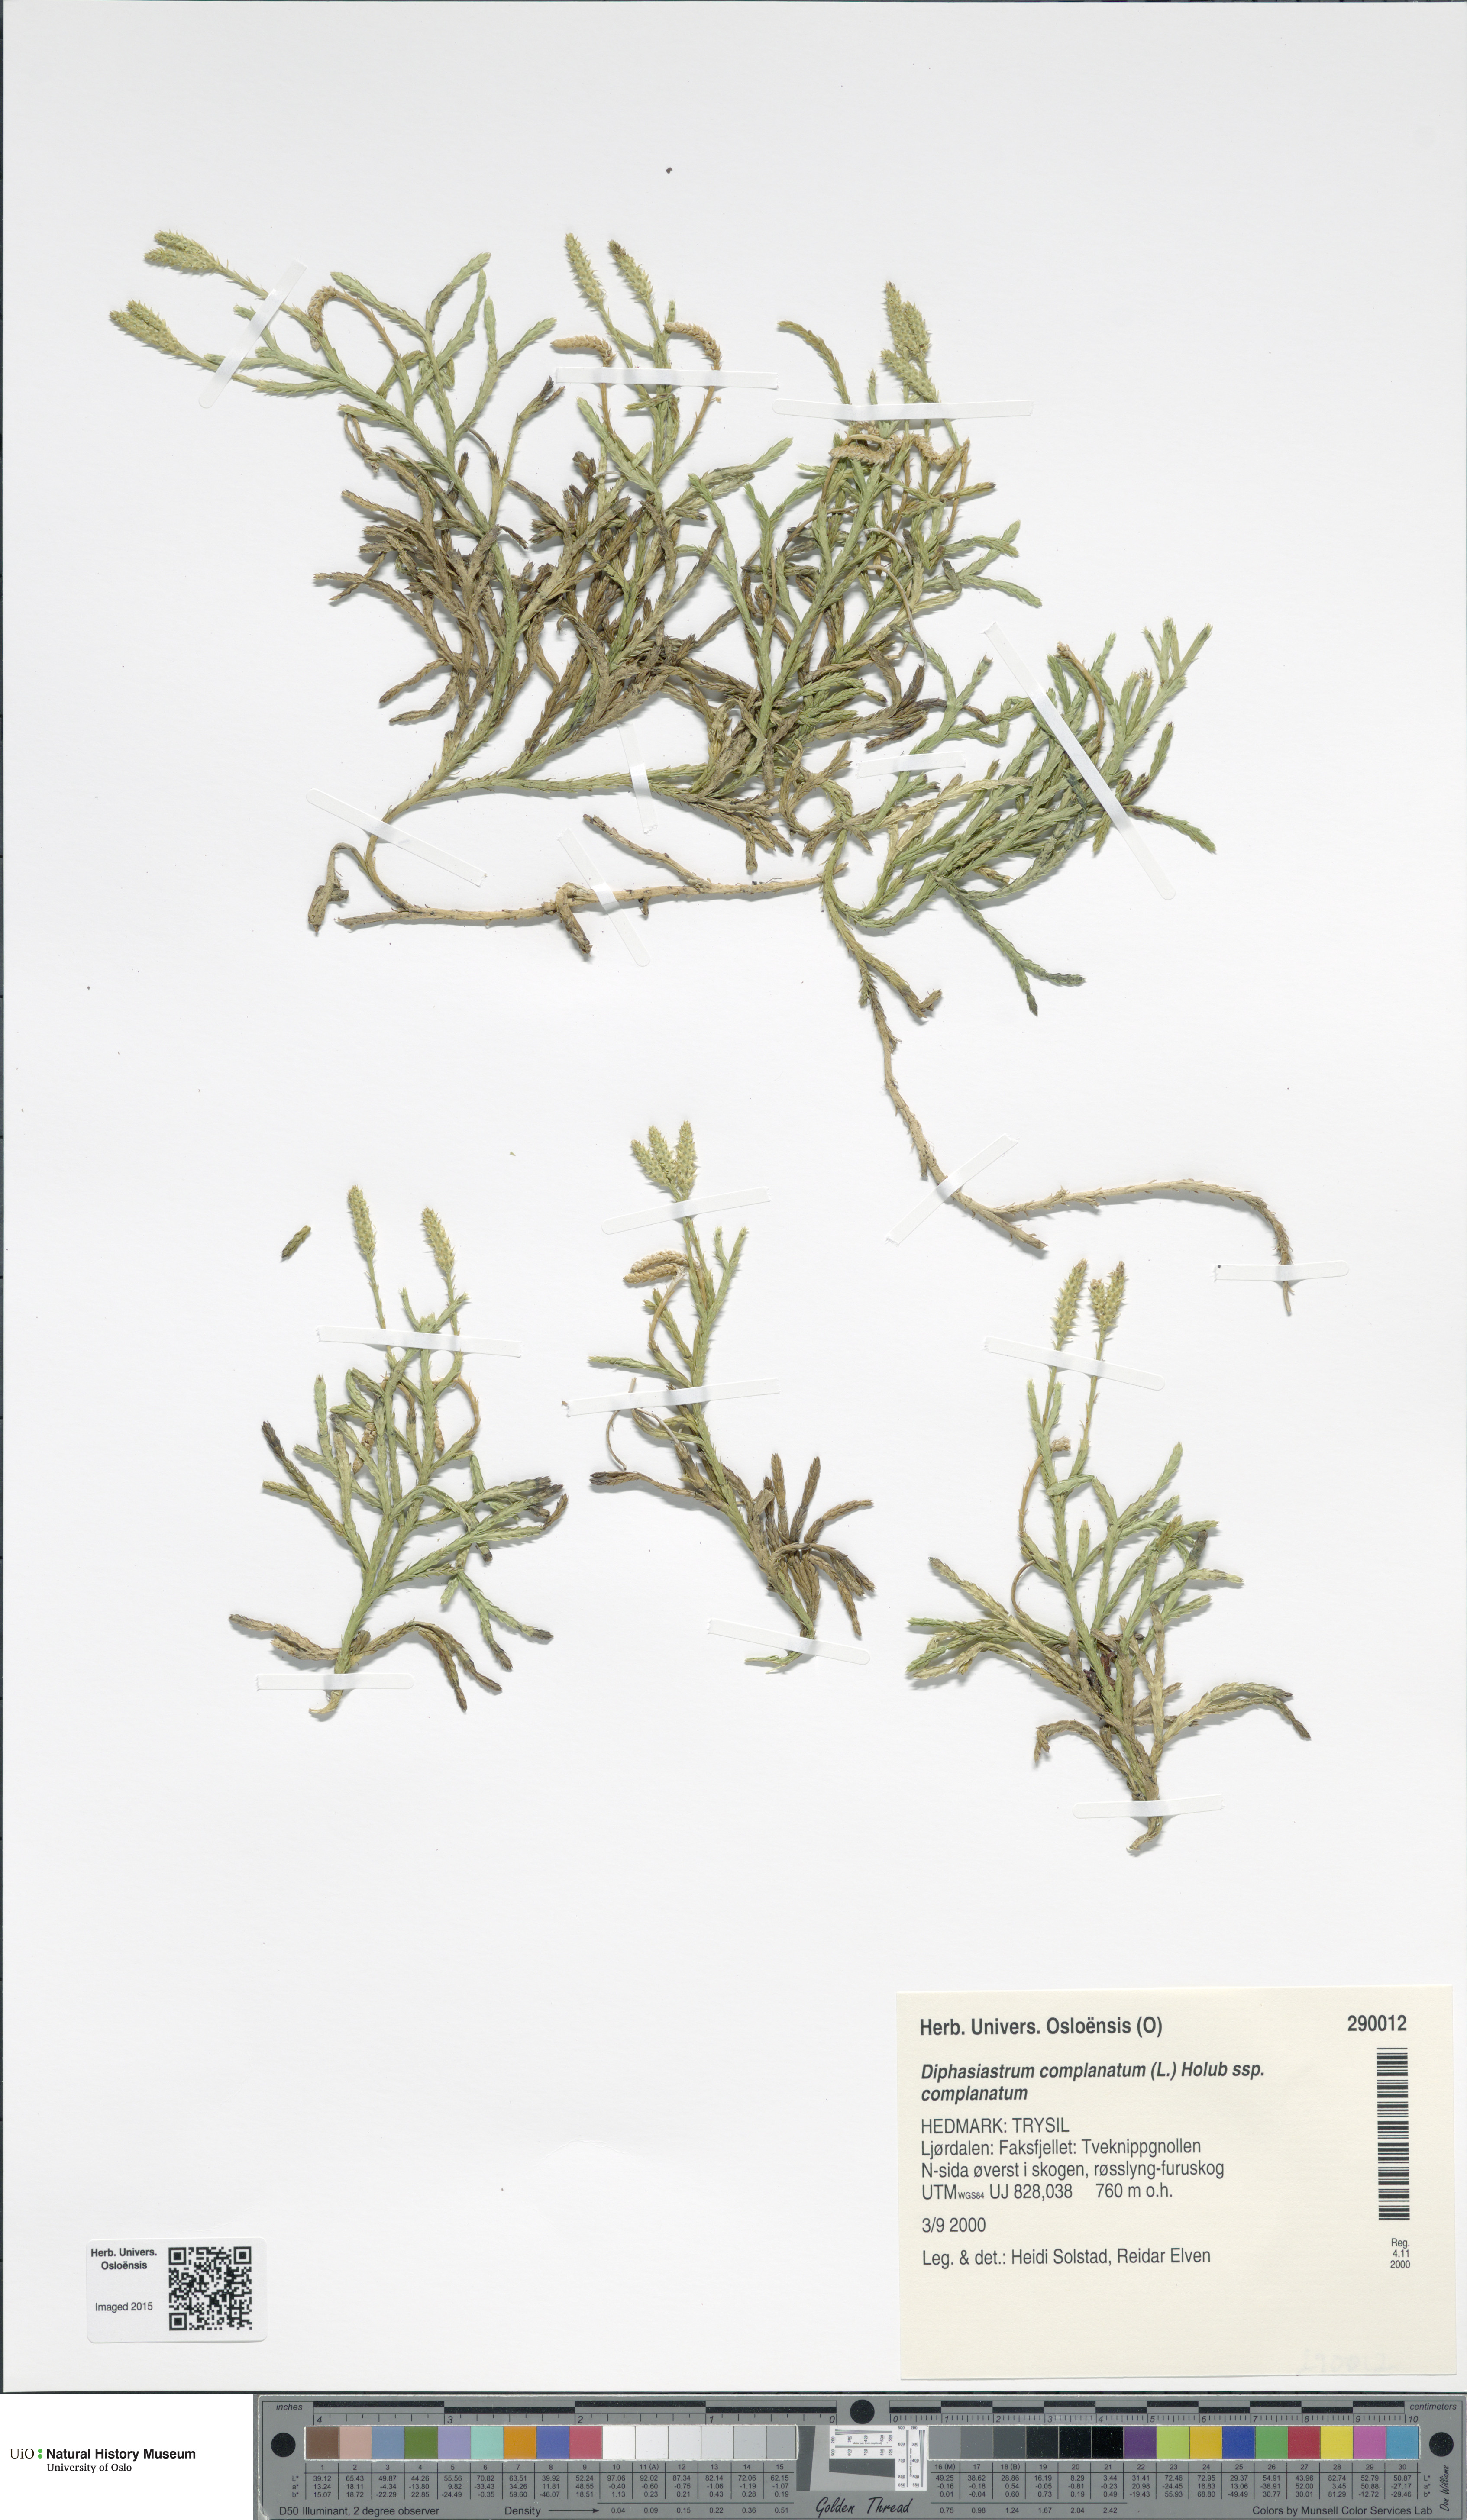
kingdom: Plantae
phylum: Tracheophyta
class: Lycopodiopsida
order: Lycopodiales
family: Lycopodiaceae
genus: Diphasiastrum
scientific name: Diphasiastrum complanatum
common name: Northern running-pine
